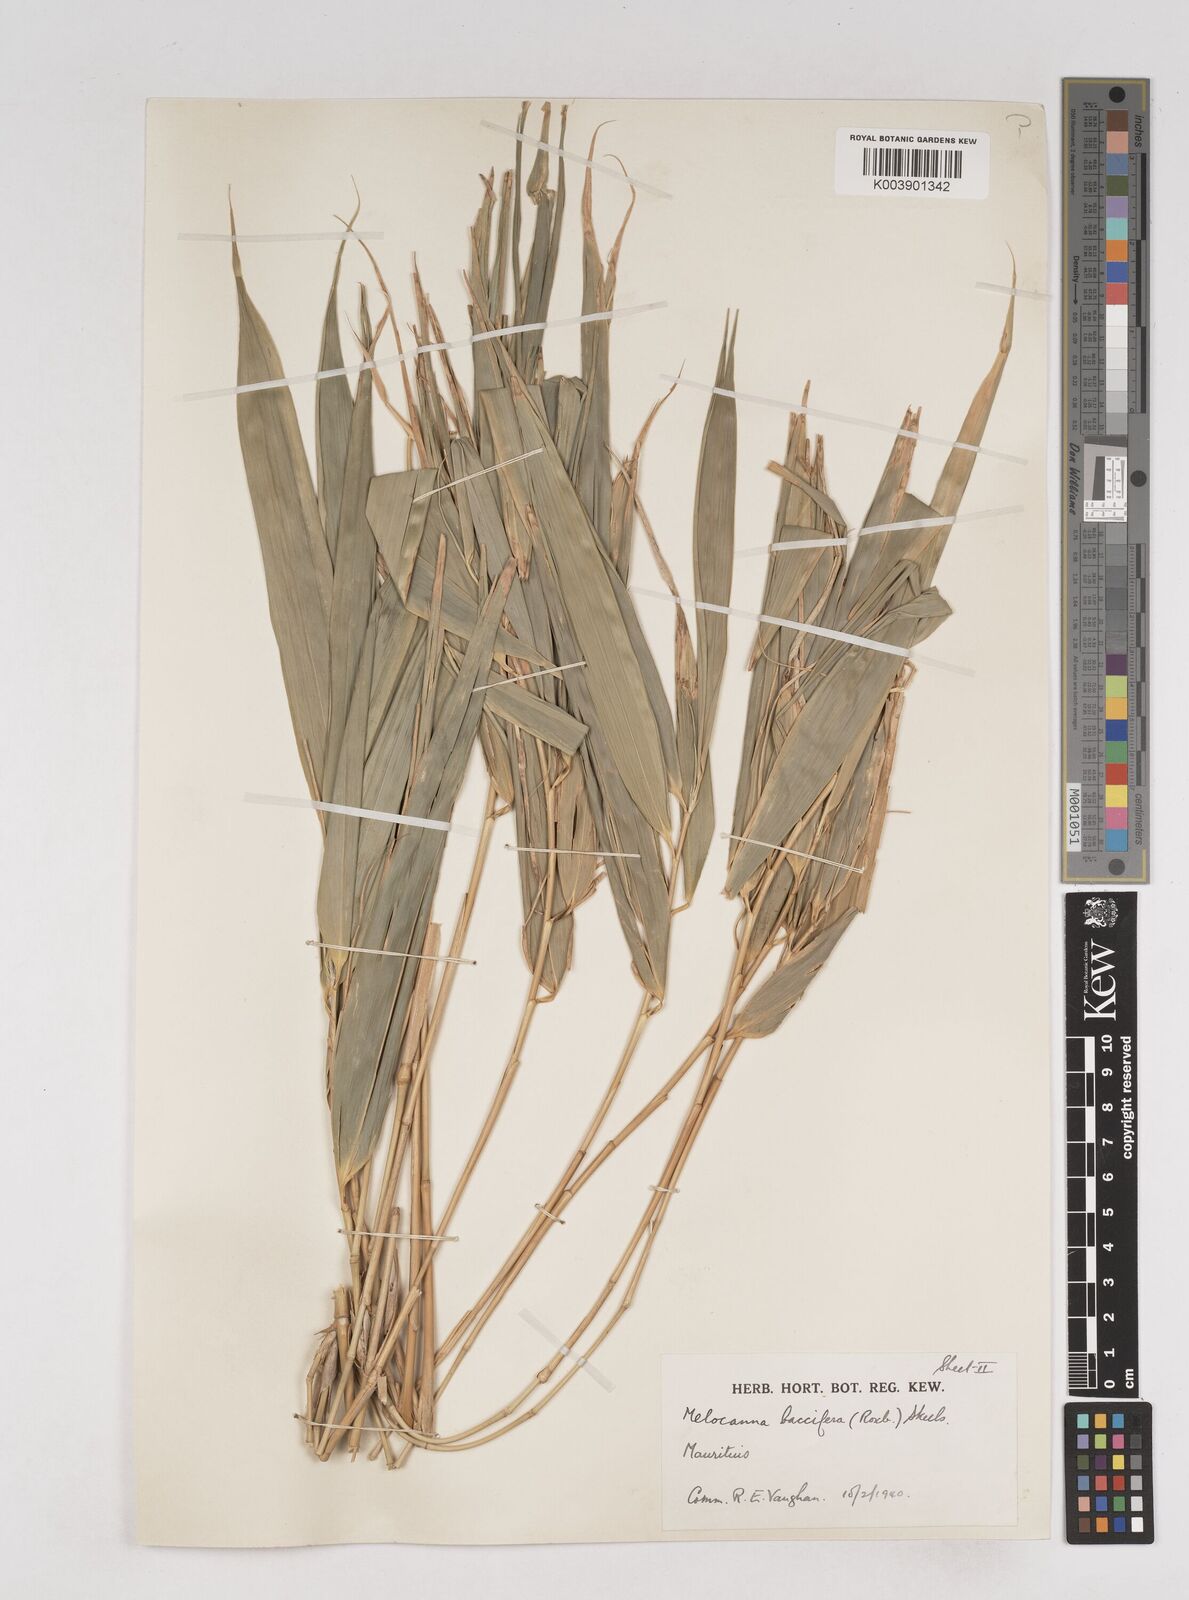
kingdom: Plantae
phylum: Tracheophyta
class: Liliopsida
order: Poales
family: Poaceae
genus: Melocanna
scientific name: Melocanna baccifera
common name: Berry bamboo
